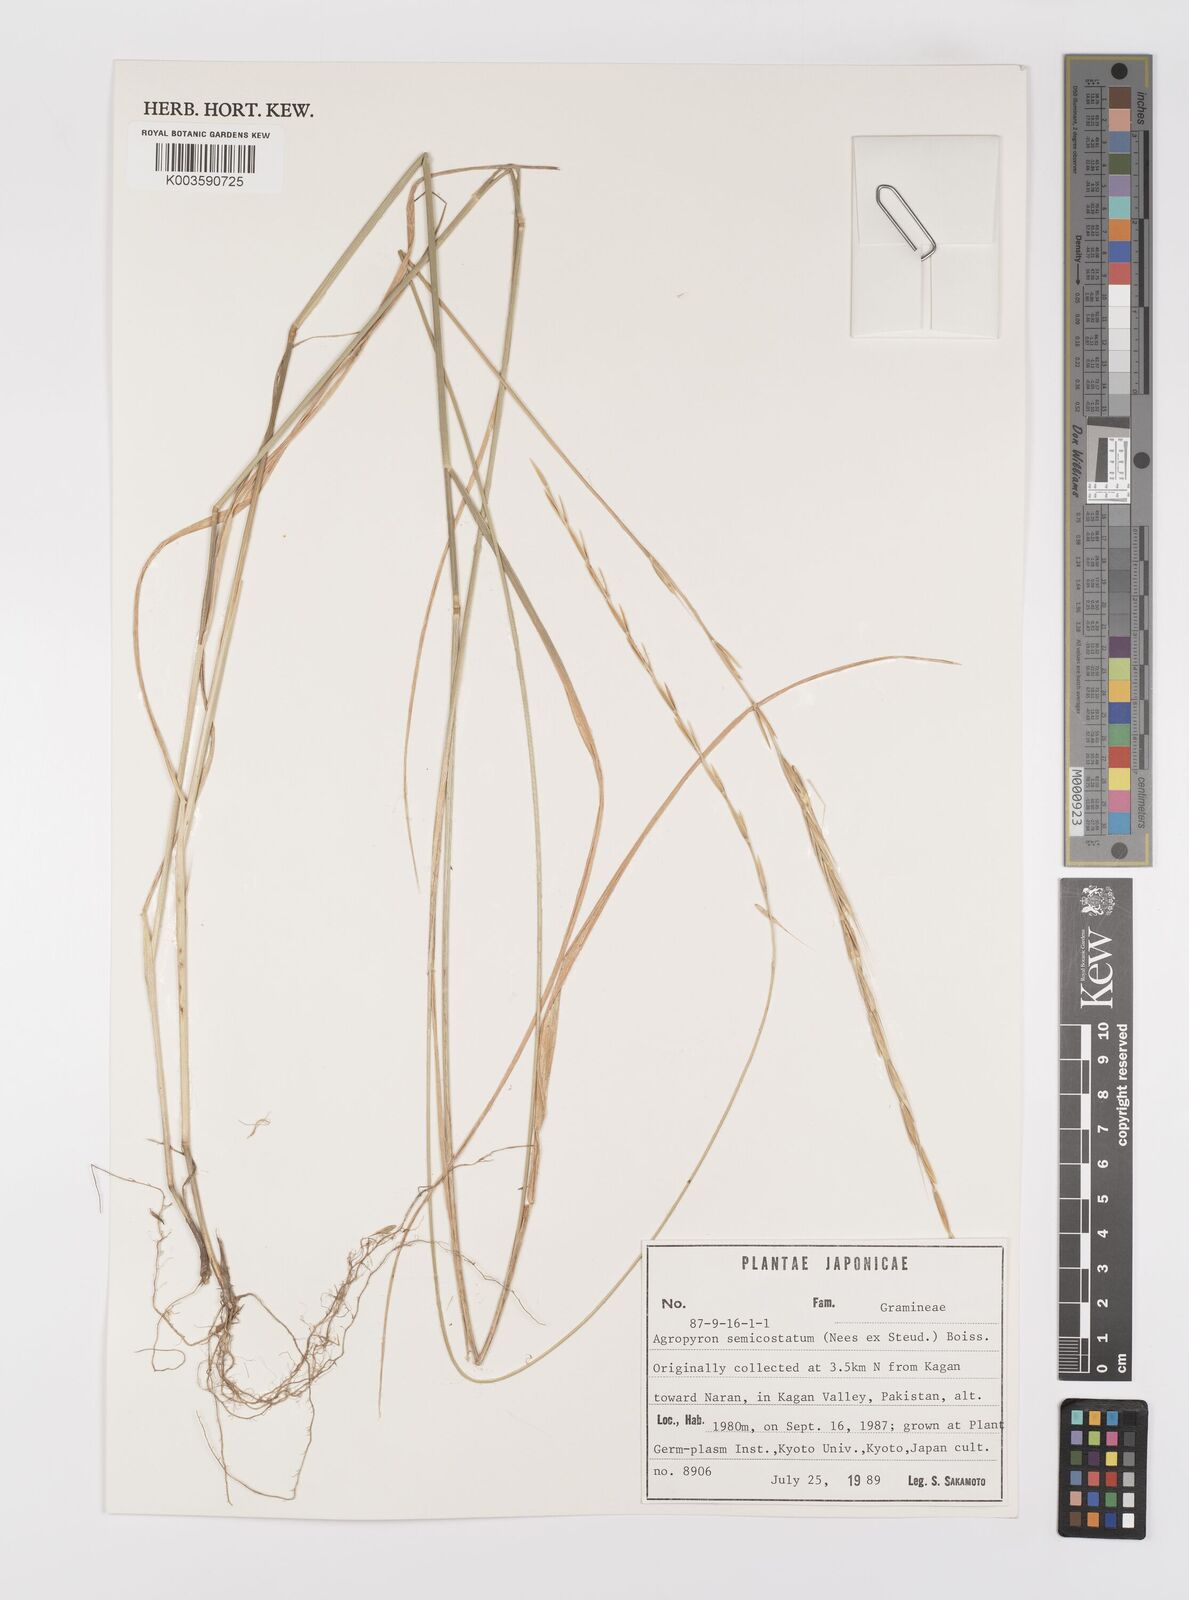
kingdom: Plantae
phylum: Tracheophyta
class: Liliopsida
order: Poales
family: Poaceae
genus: Elymus
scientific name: Elymus semicostatus
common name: Drooping wildrye
